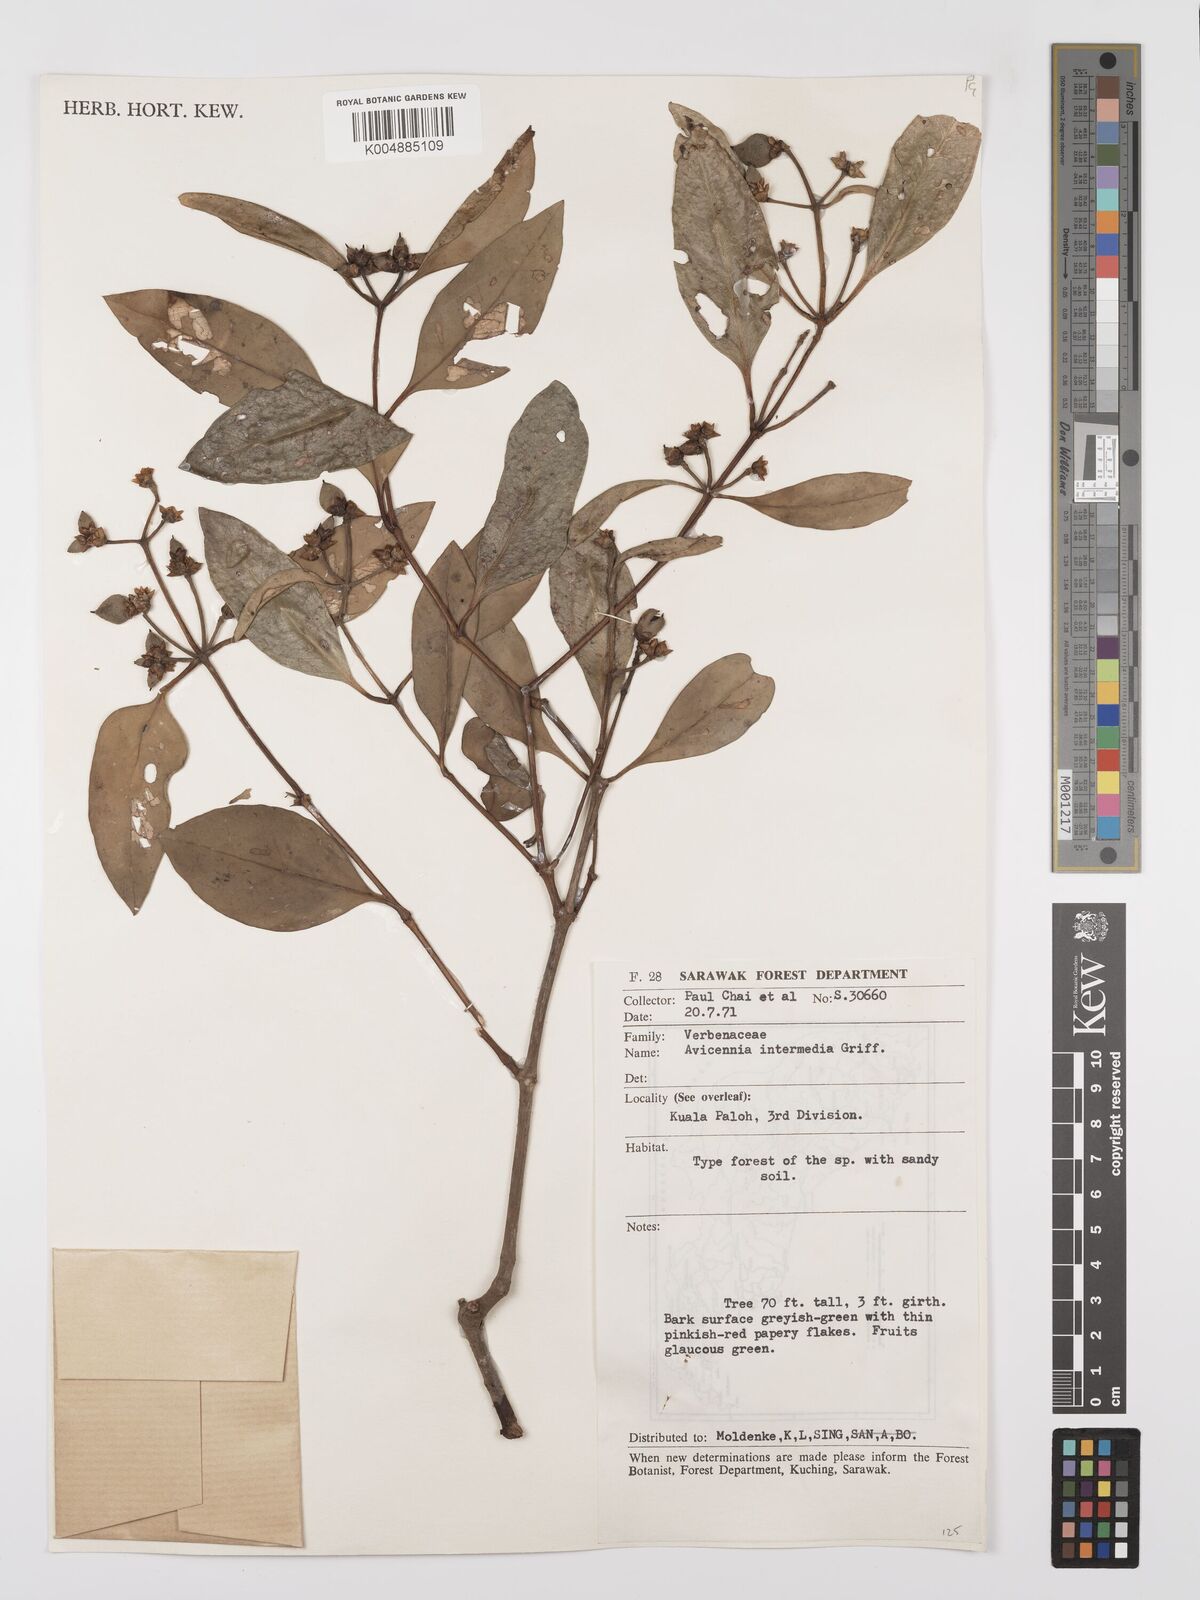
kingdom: Plantae
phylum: Tracheophyta
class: Magnoliopsida
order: Lamiales
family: Acanthaceae
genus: Avicennia
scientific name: Avicennia marina
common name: Gray mangrove
